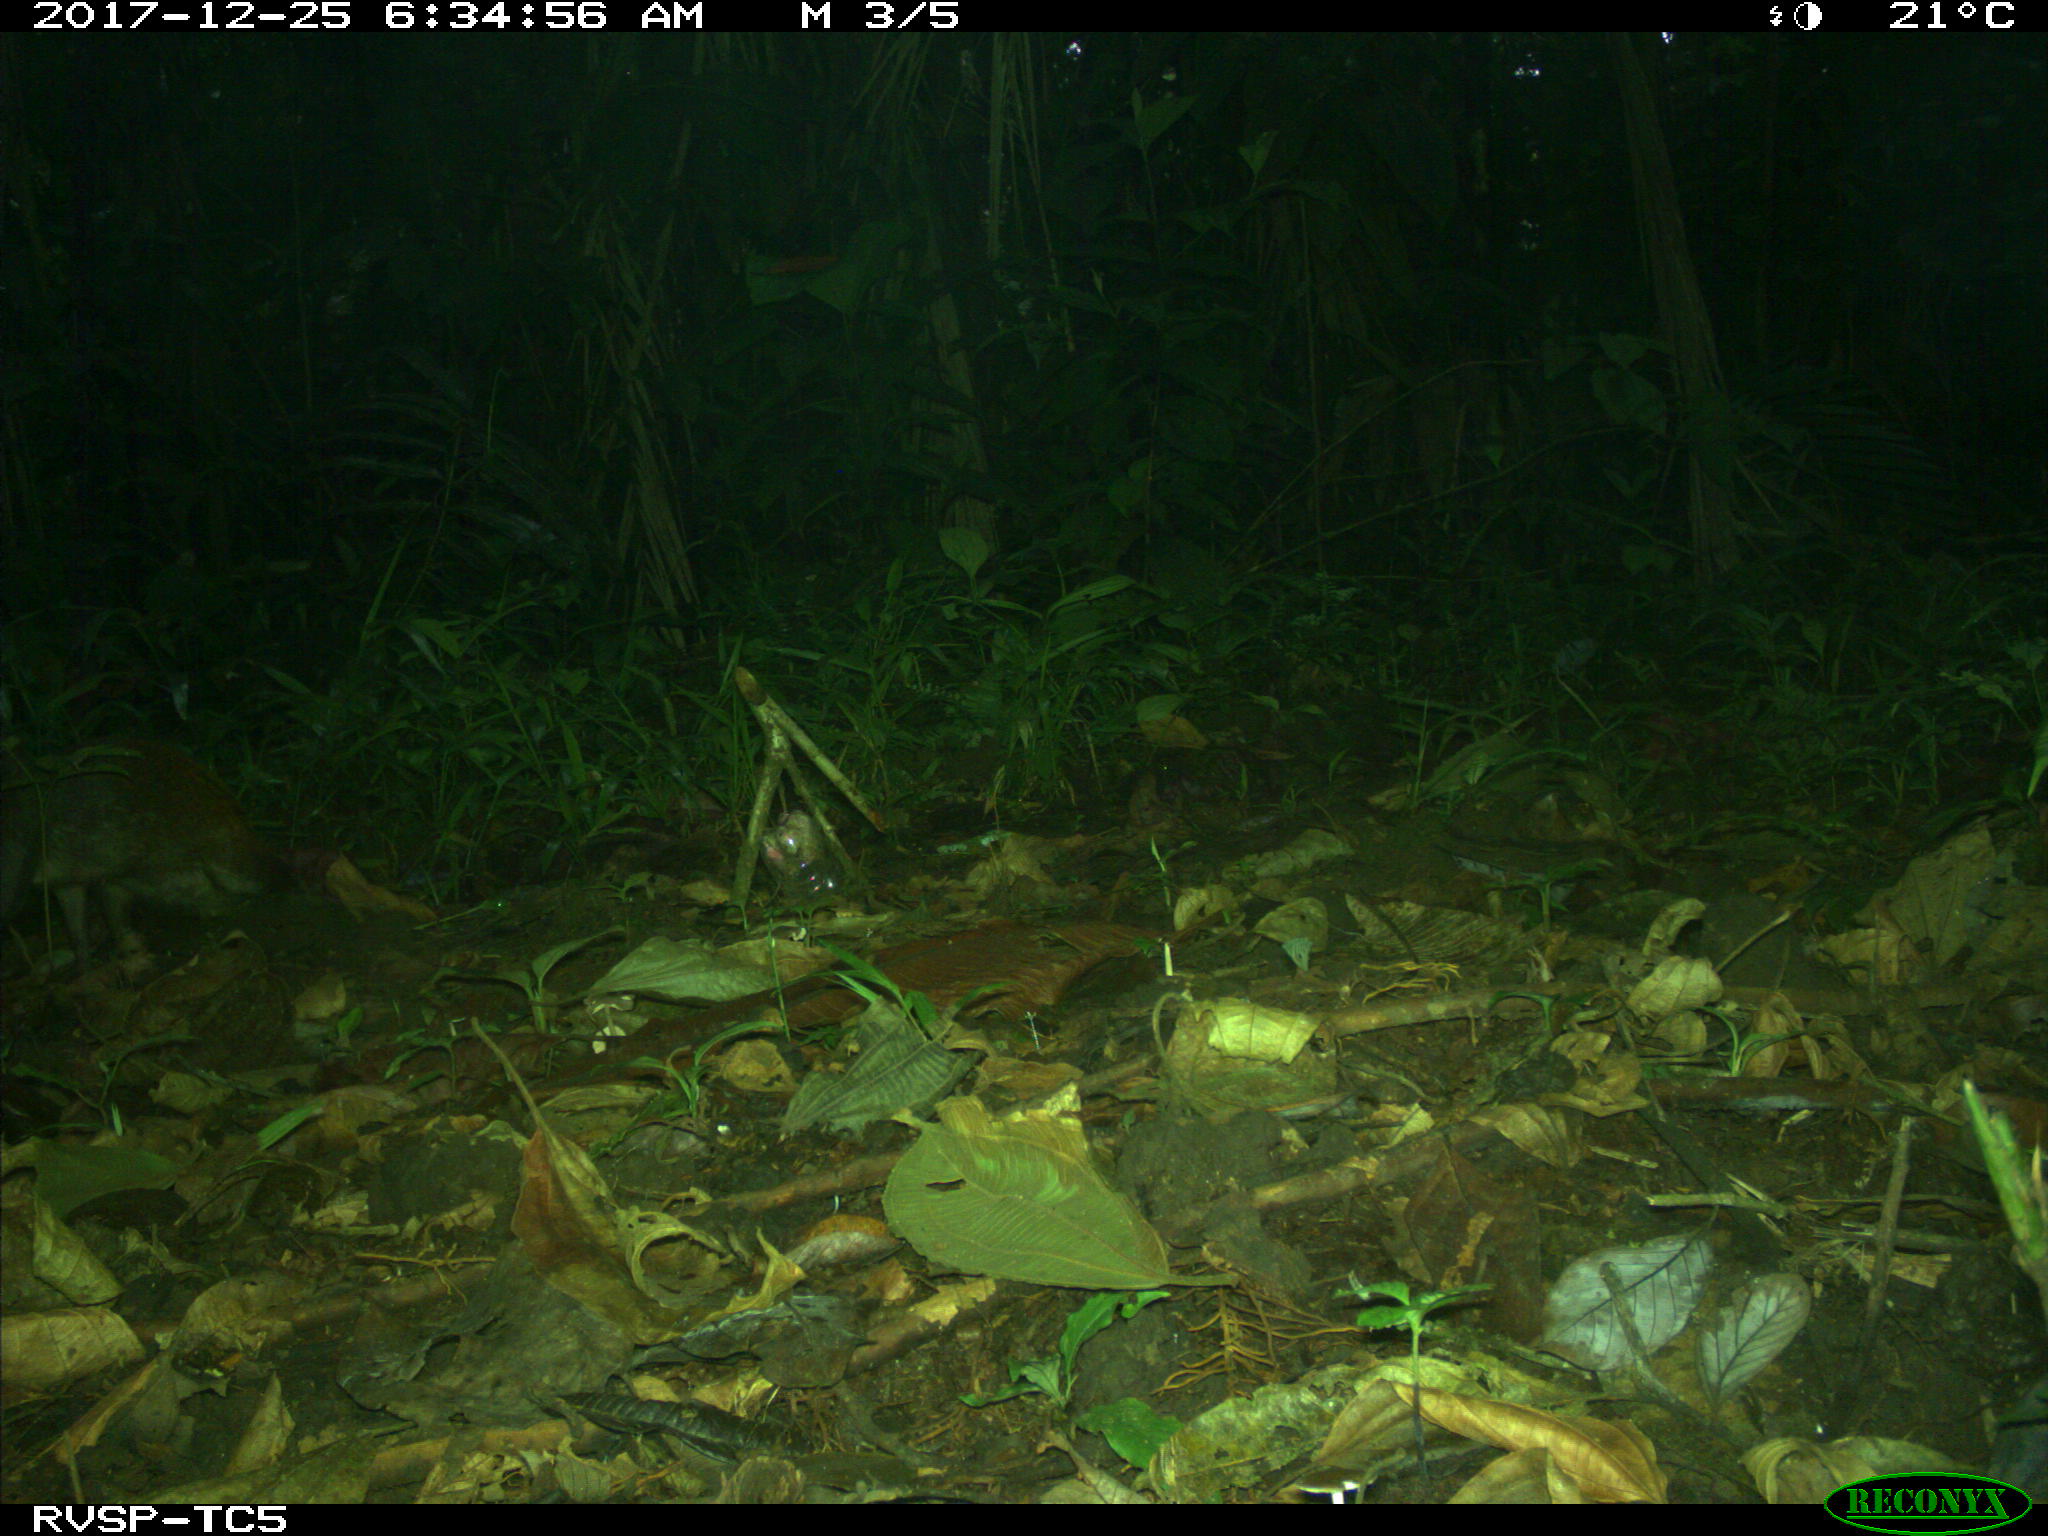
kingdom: Animalia
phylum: Chordata
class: Mammalia
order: Rodentia
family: Dasyproctidae
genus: Dasyprocta
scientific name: Dasyprocta punctata
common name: Central american agouti
